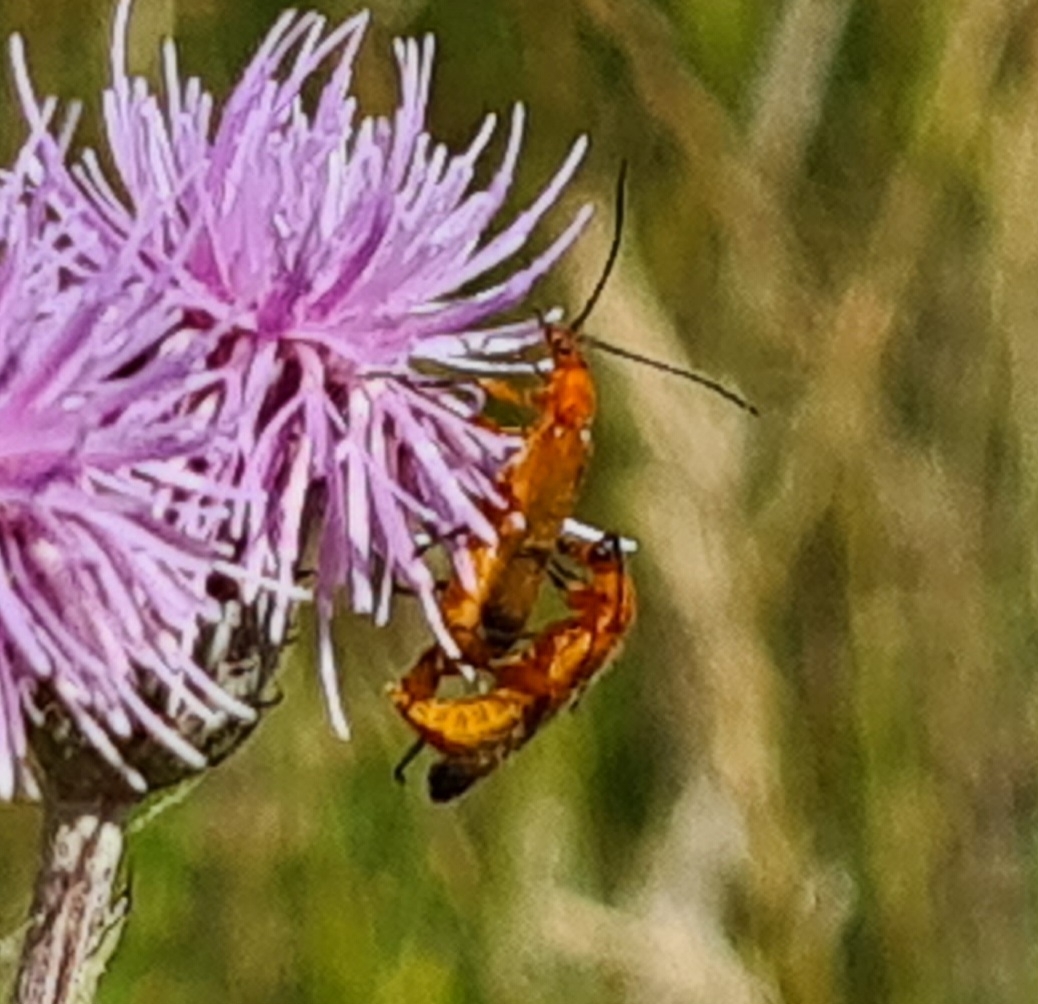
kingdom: Animalia
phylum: Arthropoda
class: Insecta
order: Coleoptera
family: Cantharidae
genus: Rhagonycha
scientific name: Rhagonycha fulva
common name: Præstebille
